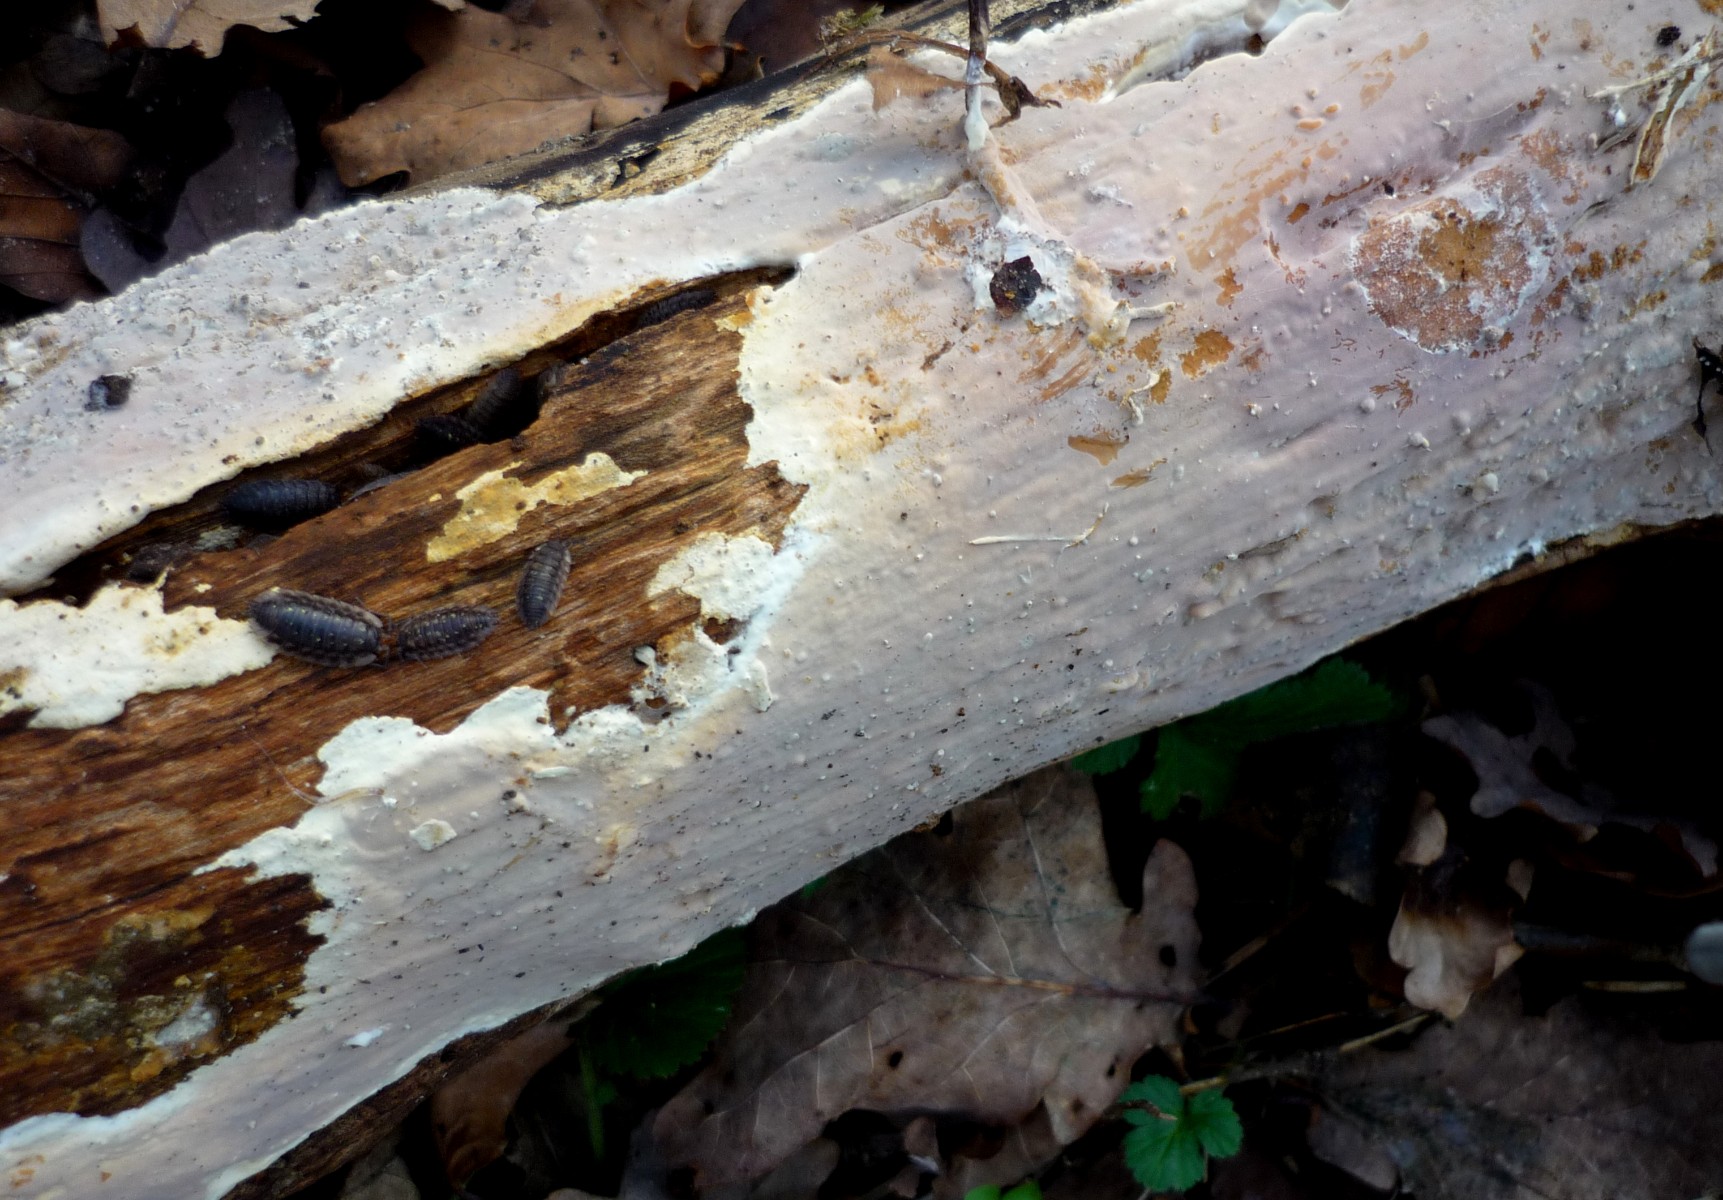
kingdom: Fungi
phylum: Basidiomycota
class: Agaricomycetes
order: Russulales
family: Peniophoraceae
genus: Scytinostroma
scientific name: Scytinostroma hemidichophyticum
